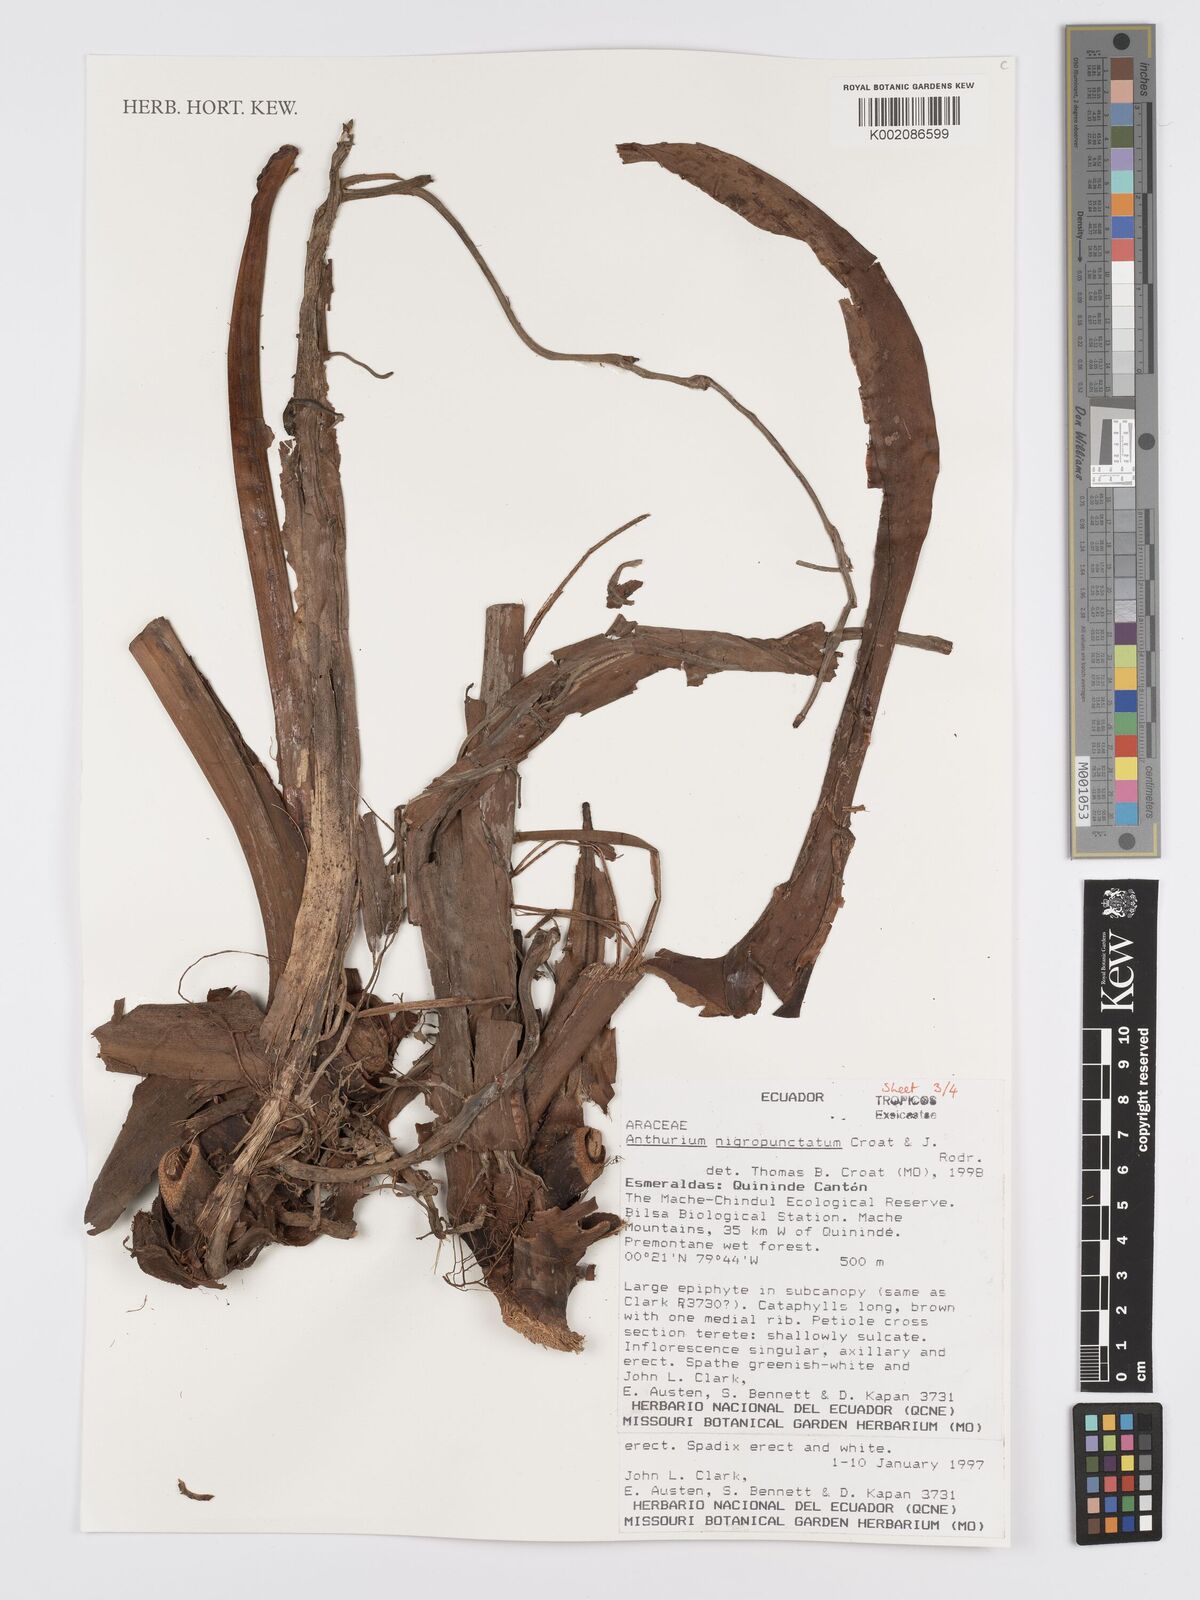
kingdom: Plantae
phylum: Tracheophyta
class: Liliopsida
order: Alismatales
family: Araceae
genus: Anthurium
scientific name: Anthurium nigropunctatum
